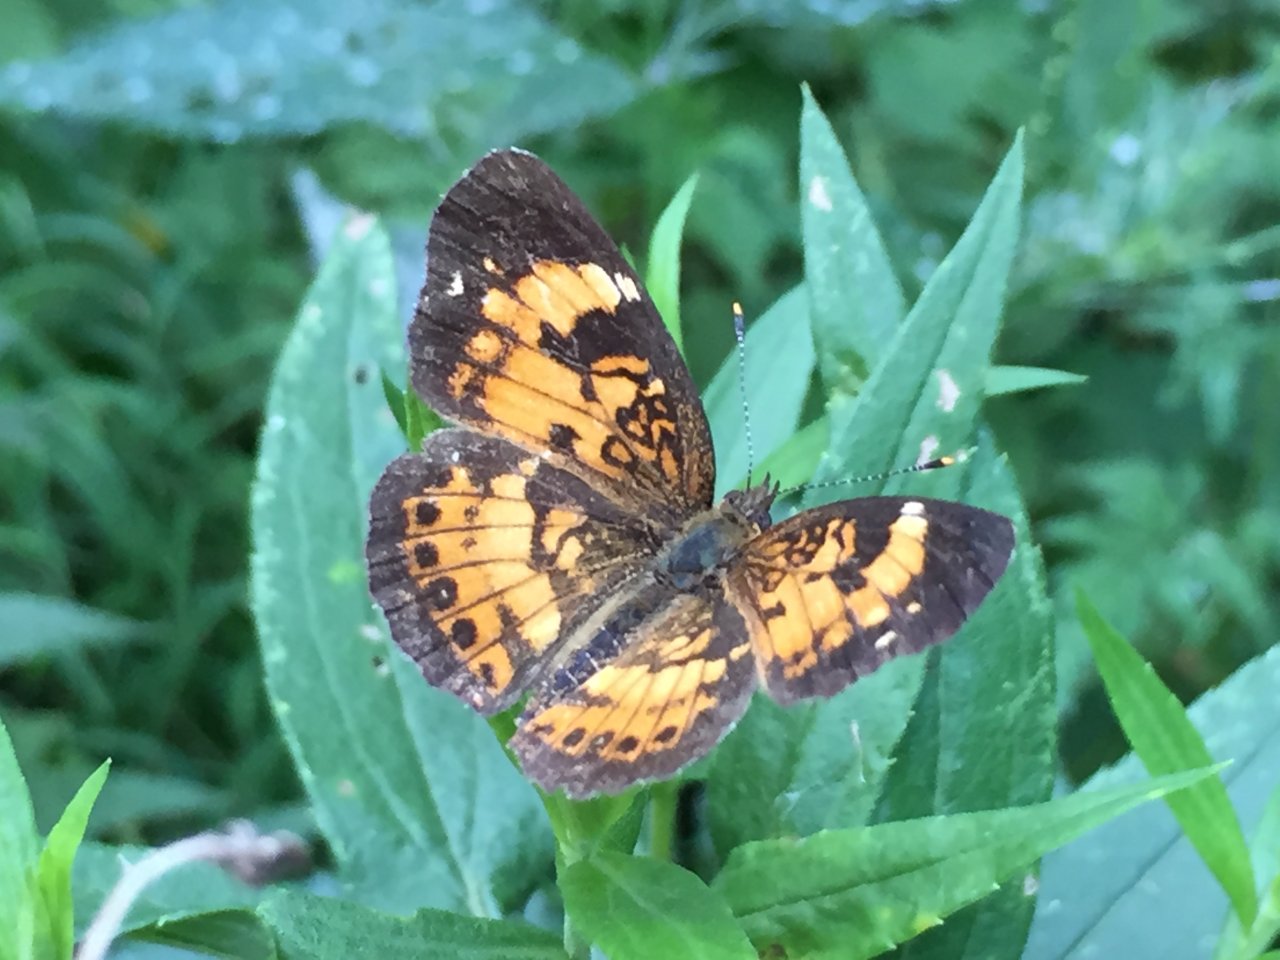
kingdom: Animalia
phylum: Arthropoda
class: Insecta
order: Lepidoptera
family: Nymphalidae
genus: Chlosyne
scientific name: Chlosyne nycteis
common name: Silvery Checkerspot
